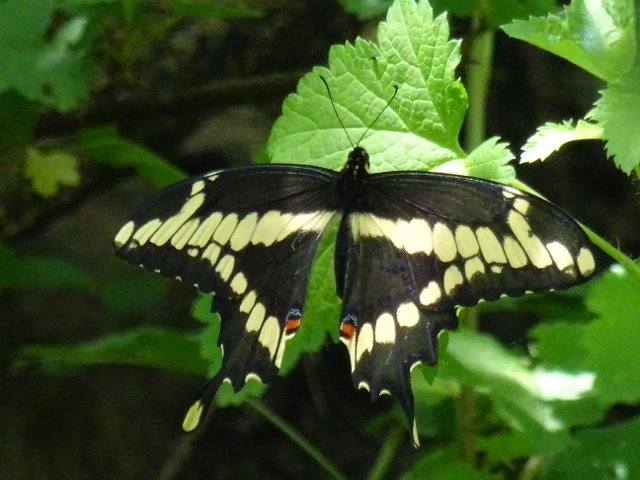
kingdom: Animalia
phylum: Arthropoda
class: Insecta
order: Lepidoptera
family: Papilionidae
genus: Papilio
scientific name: Papilio cresphontes
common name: Eastern Giant Swallowtail
